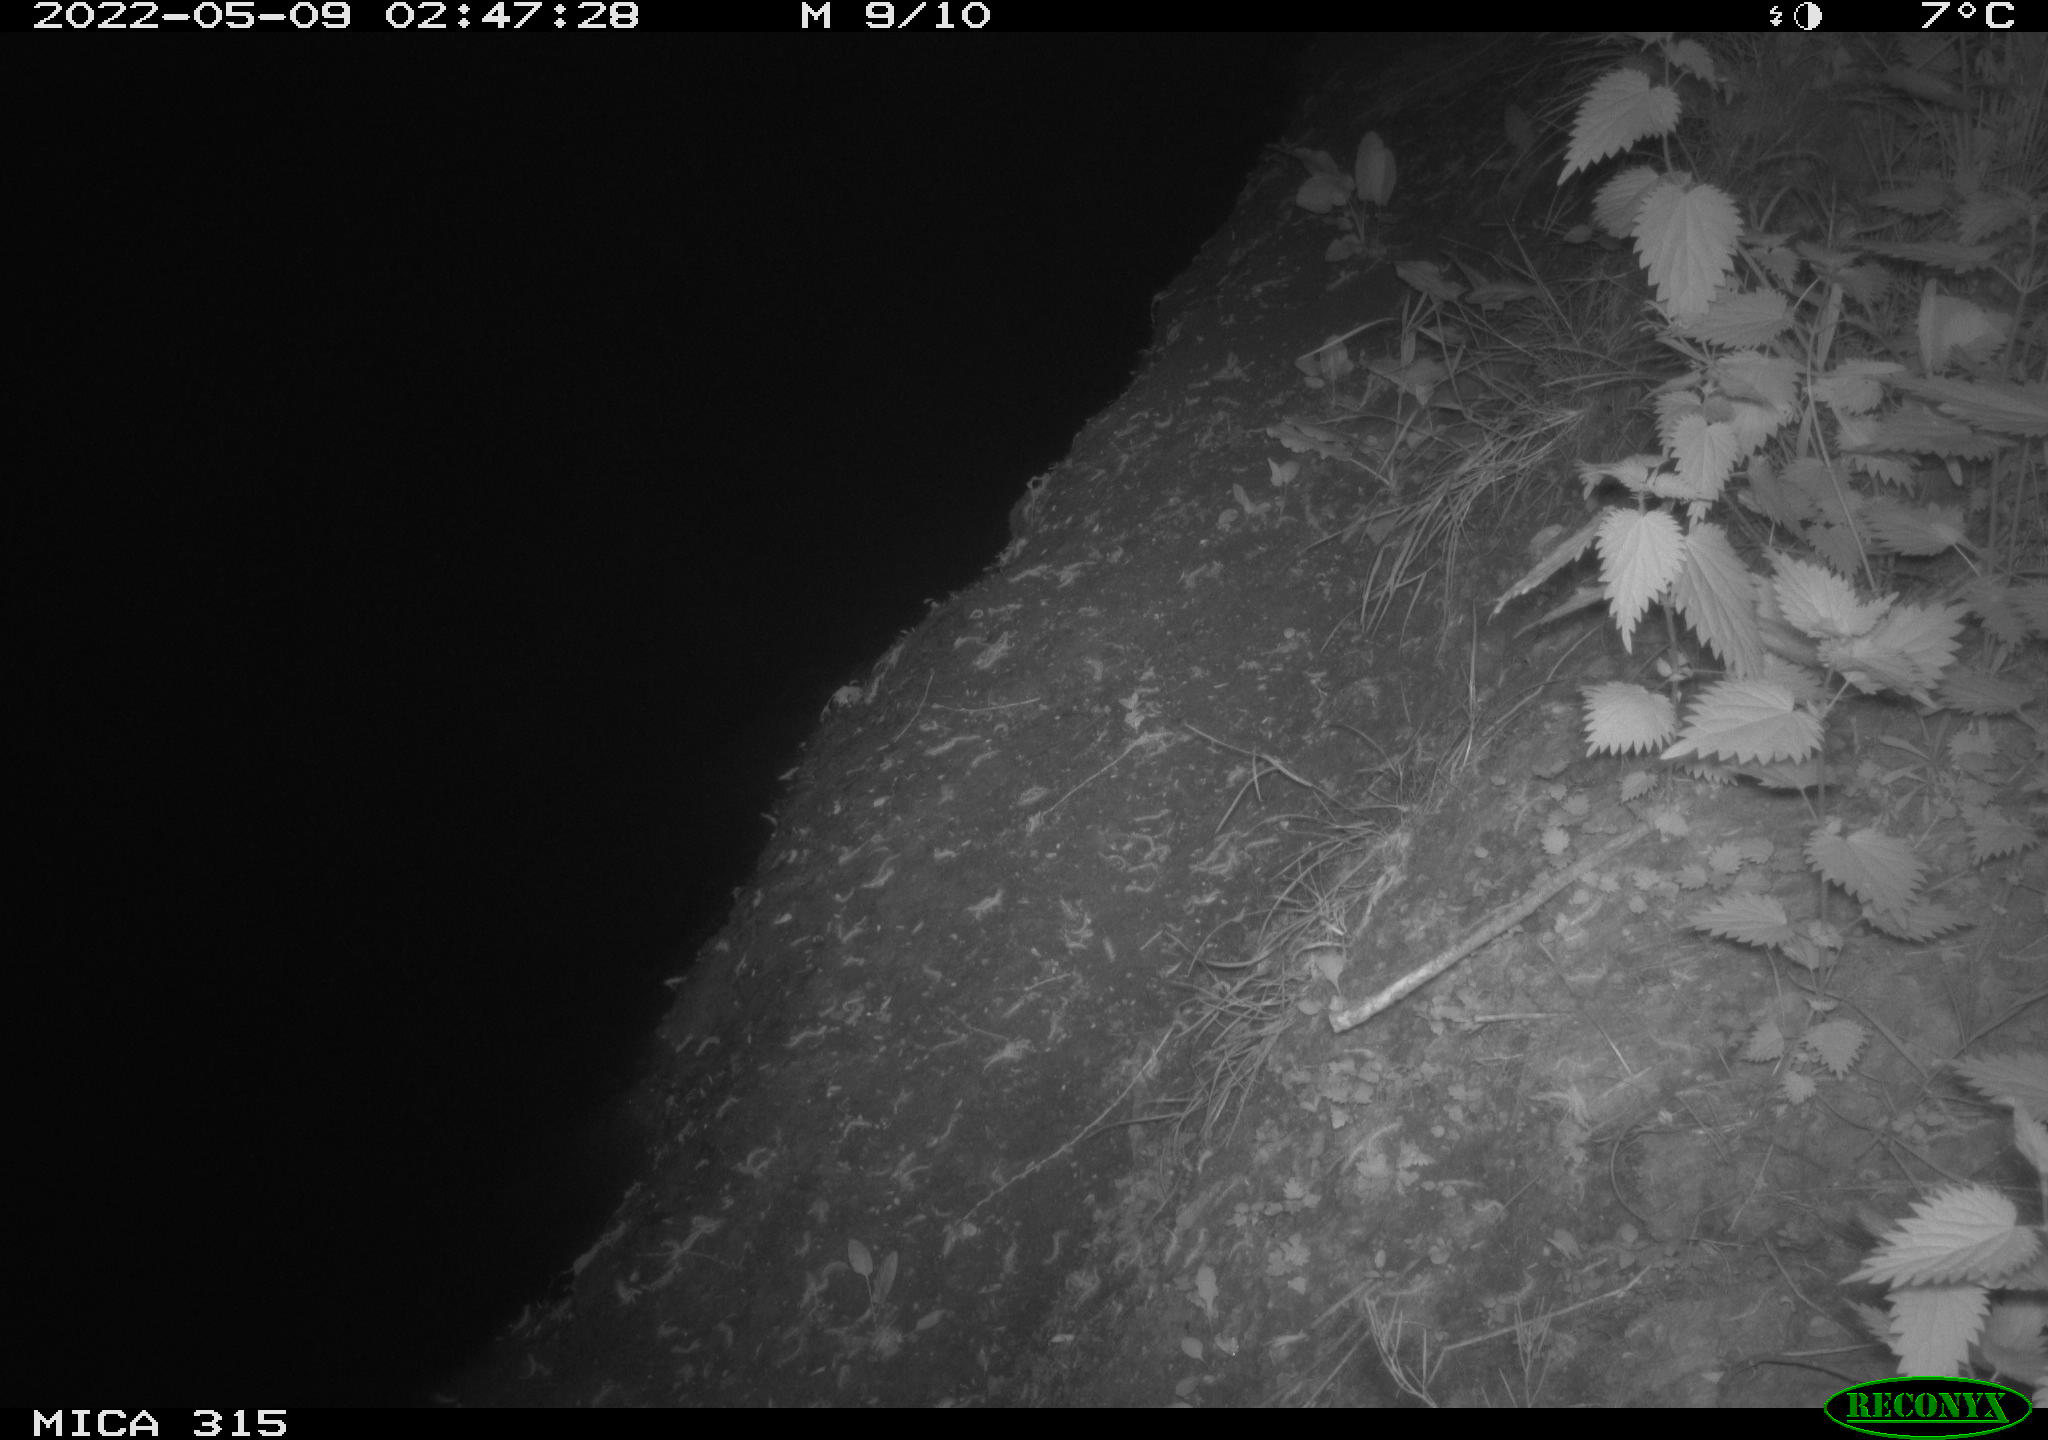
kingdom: Animalia
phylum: Chordata
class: Aves
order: Anseriformes
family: Anatidae
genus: Anas
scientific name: Anas platyrhynchos
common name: Mallard
